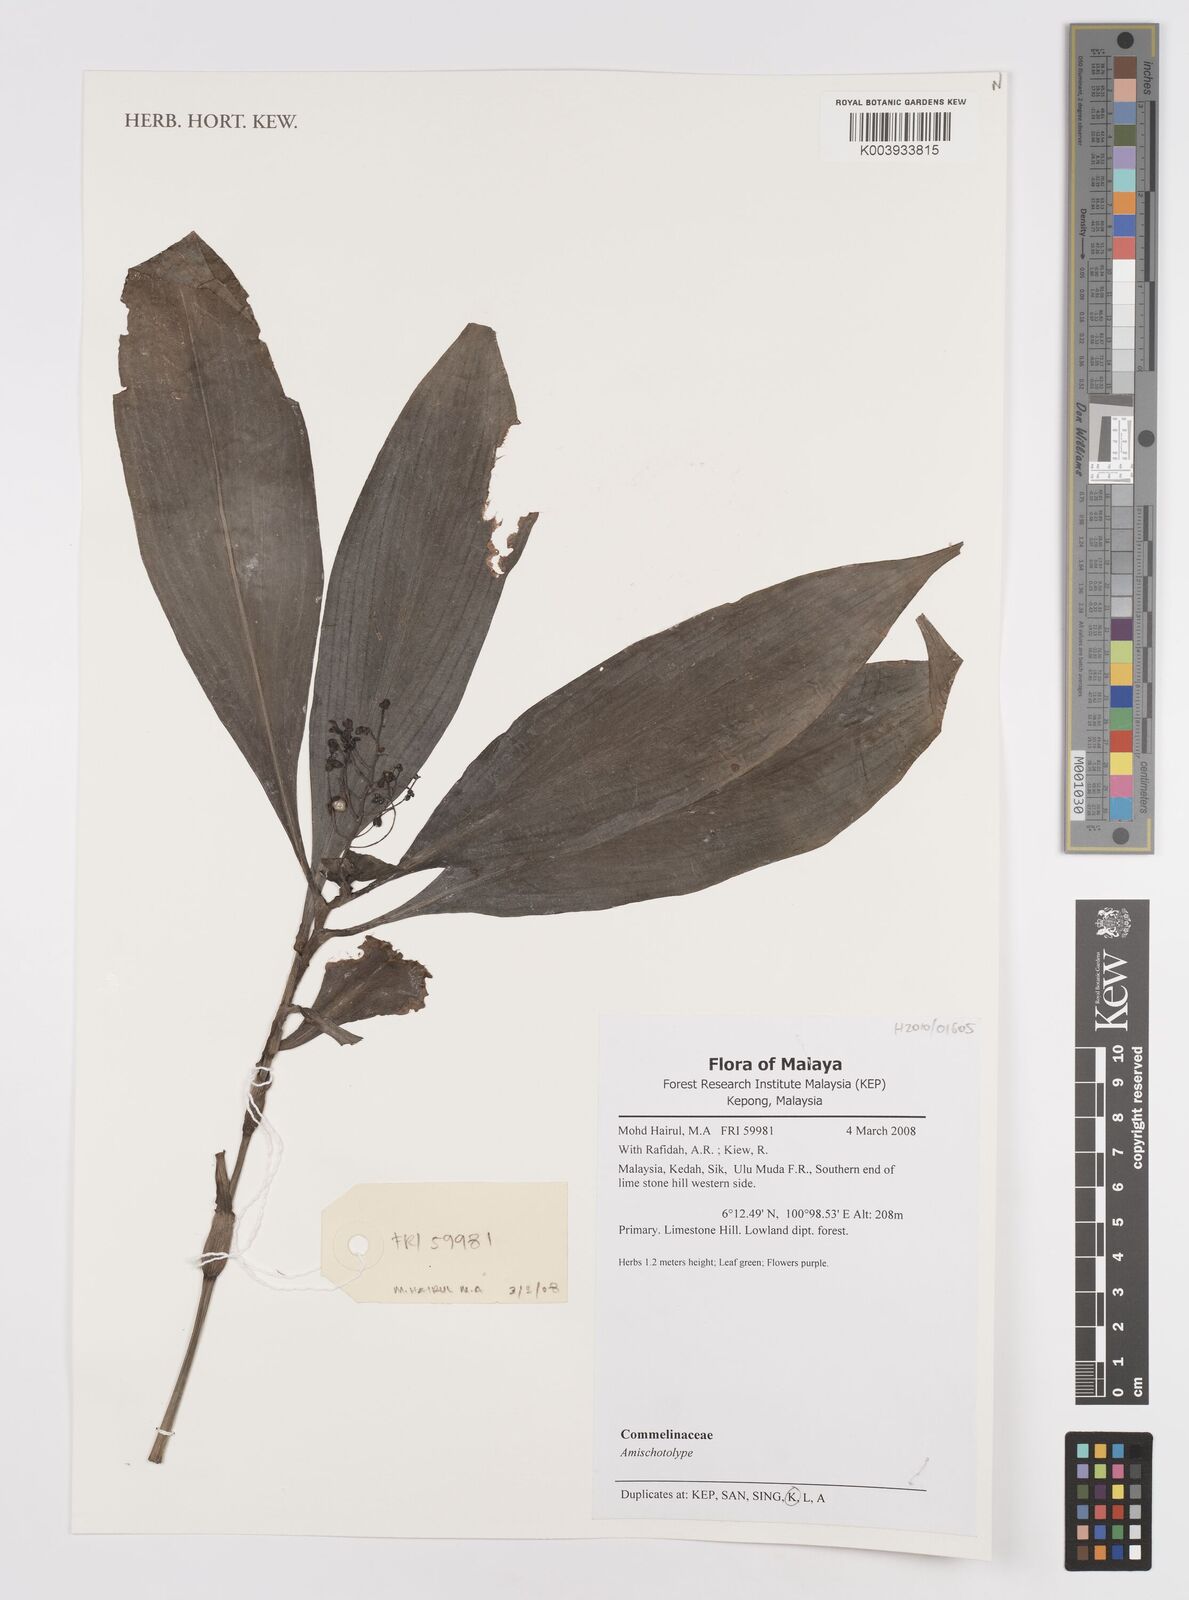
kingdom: Plantae
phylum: Tracheophyta
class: Liliopsida
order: Commelinales
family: Commelinaceae
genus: Amischotolype
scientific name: Amischotolype
